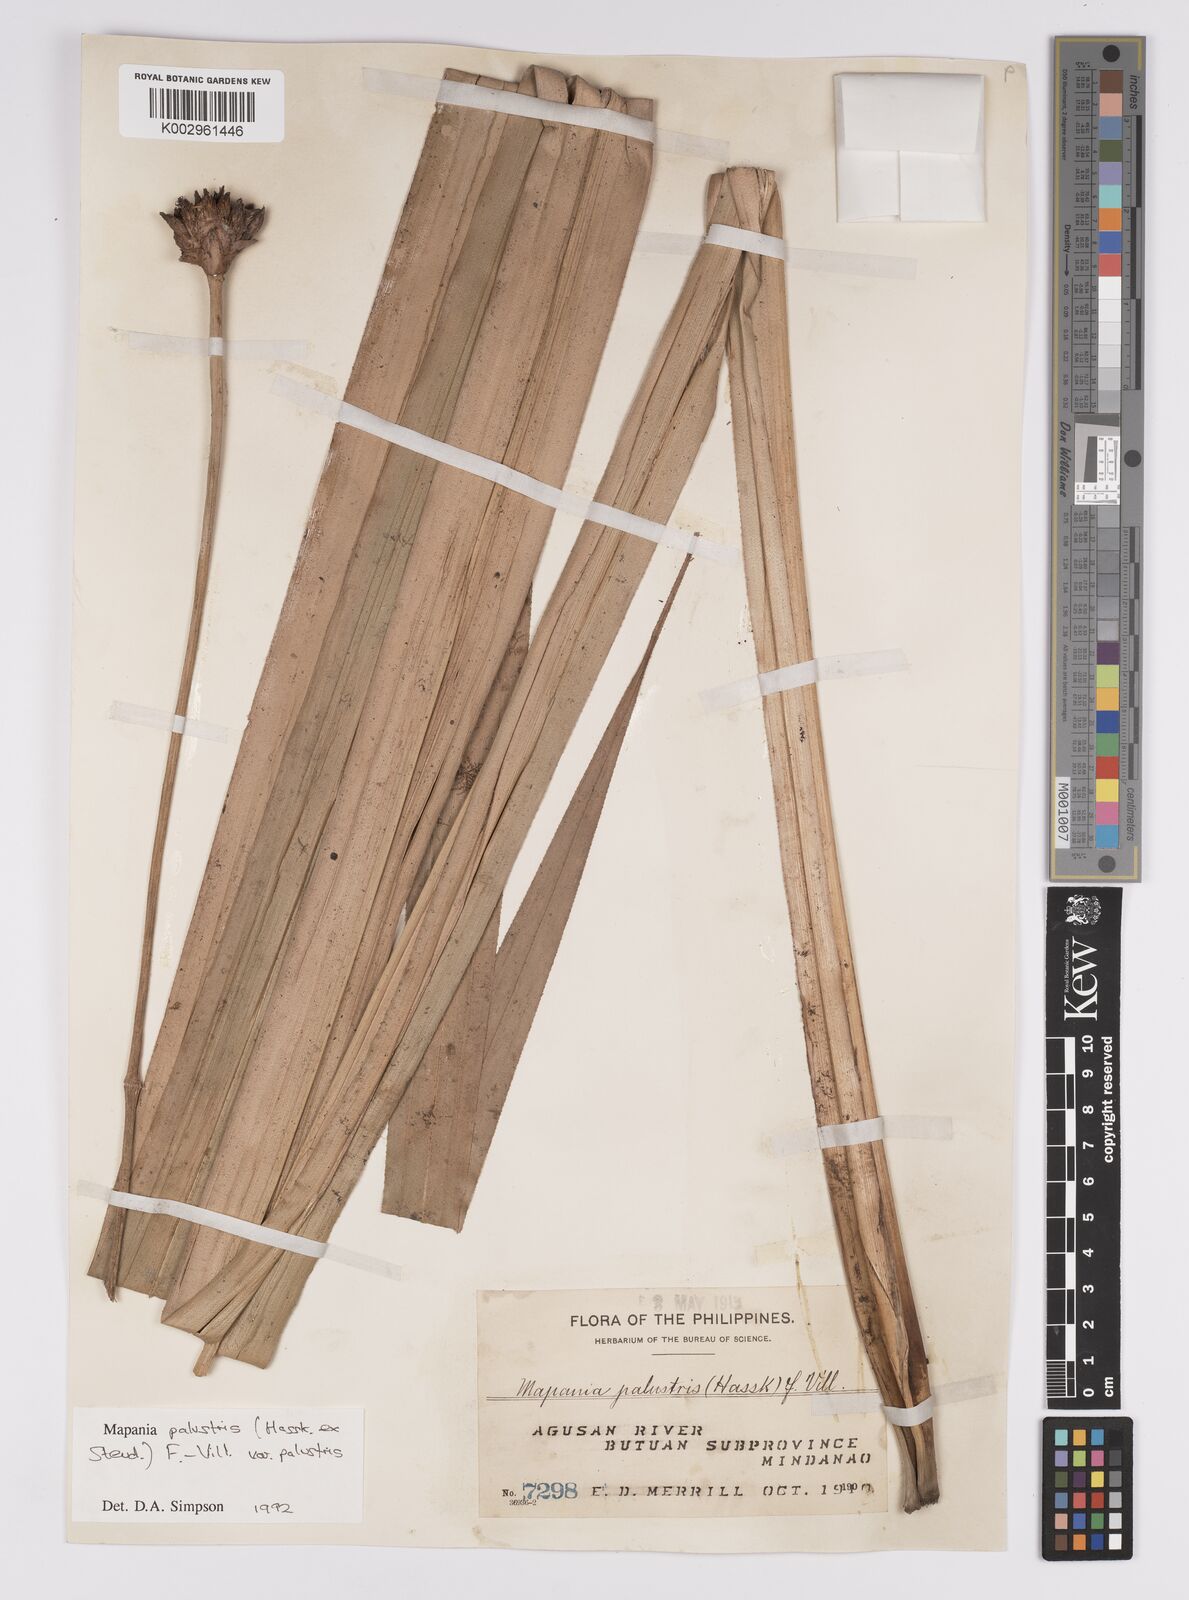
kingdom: Plantae
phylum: Tracheophyta
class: Liliopsida
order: Poales
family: Cyperaceae
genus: Mapania
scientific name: Mapania palustris
